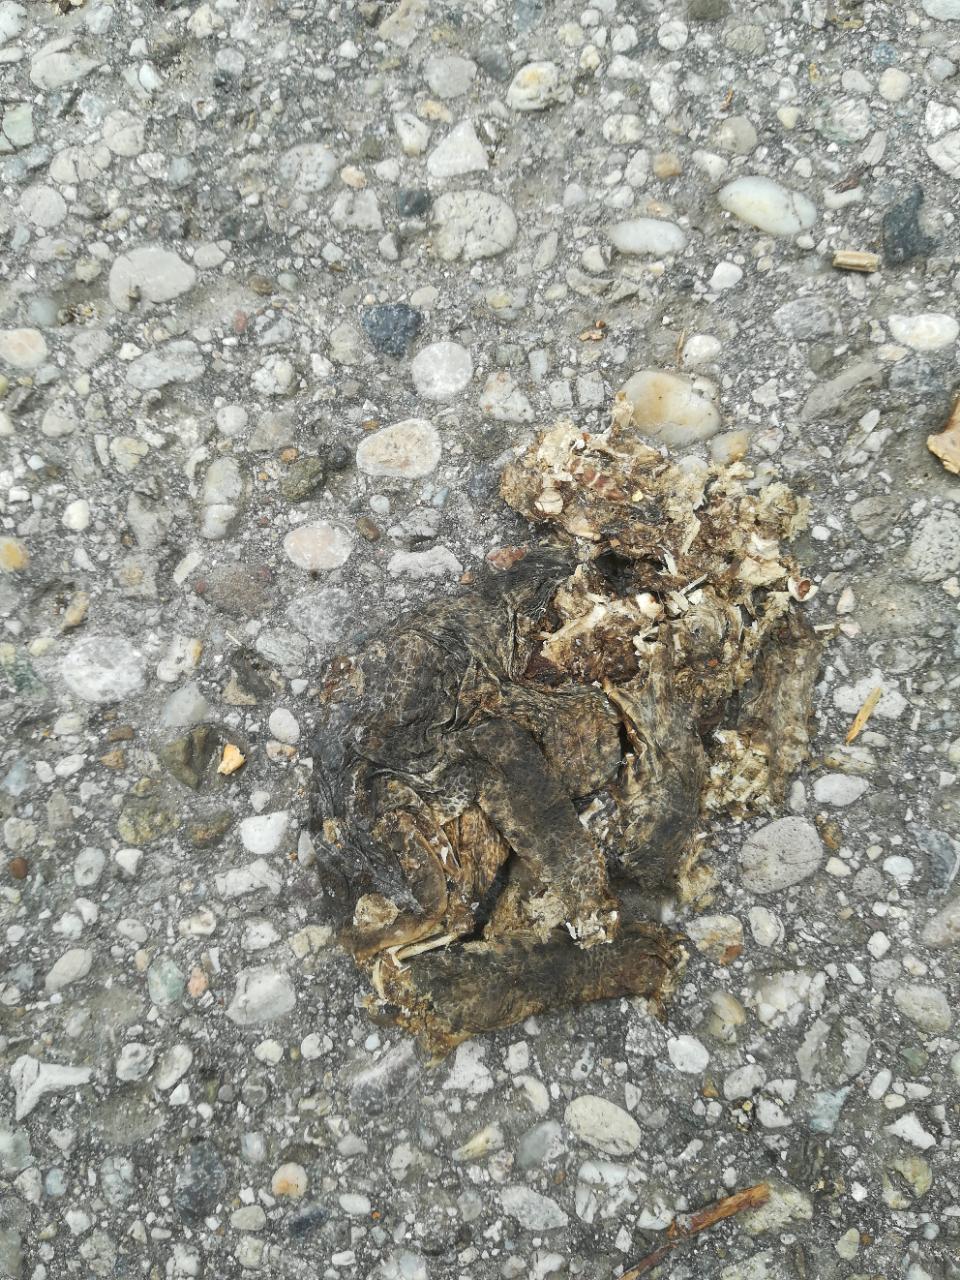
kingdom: Animalia
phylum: Chordata
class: Amphibia
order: Anura
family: Bufonidae
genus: Bufo
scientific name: Bufo bufo
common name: Common toad
